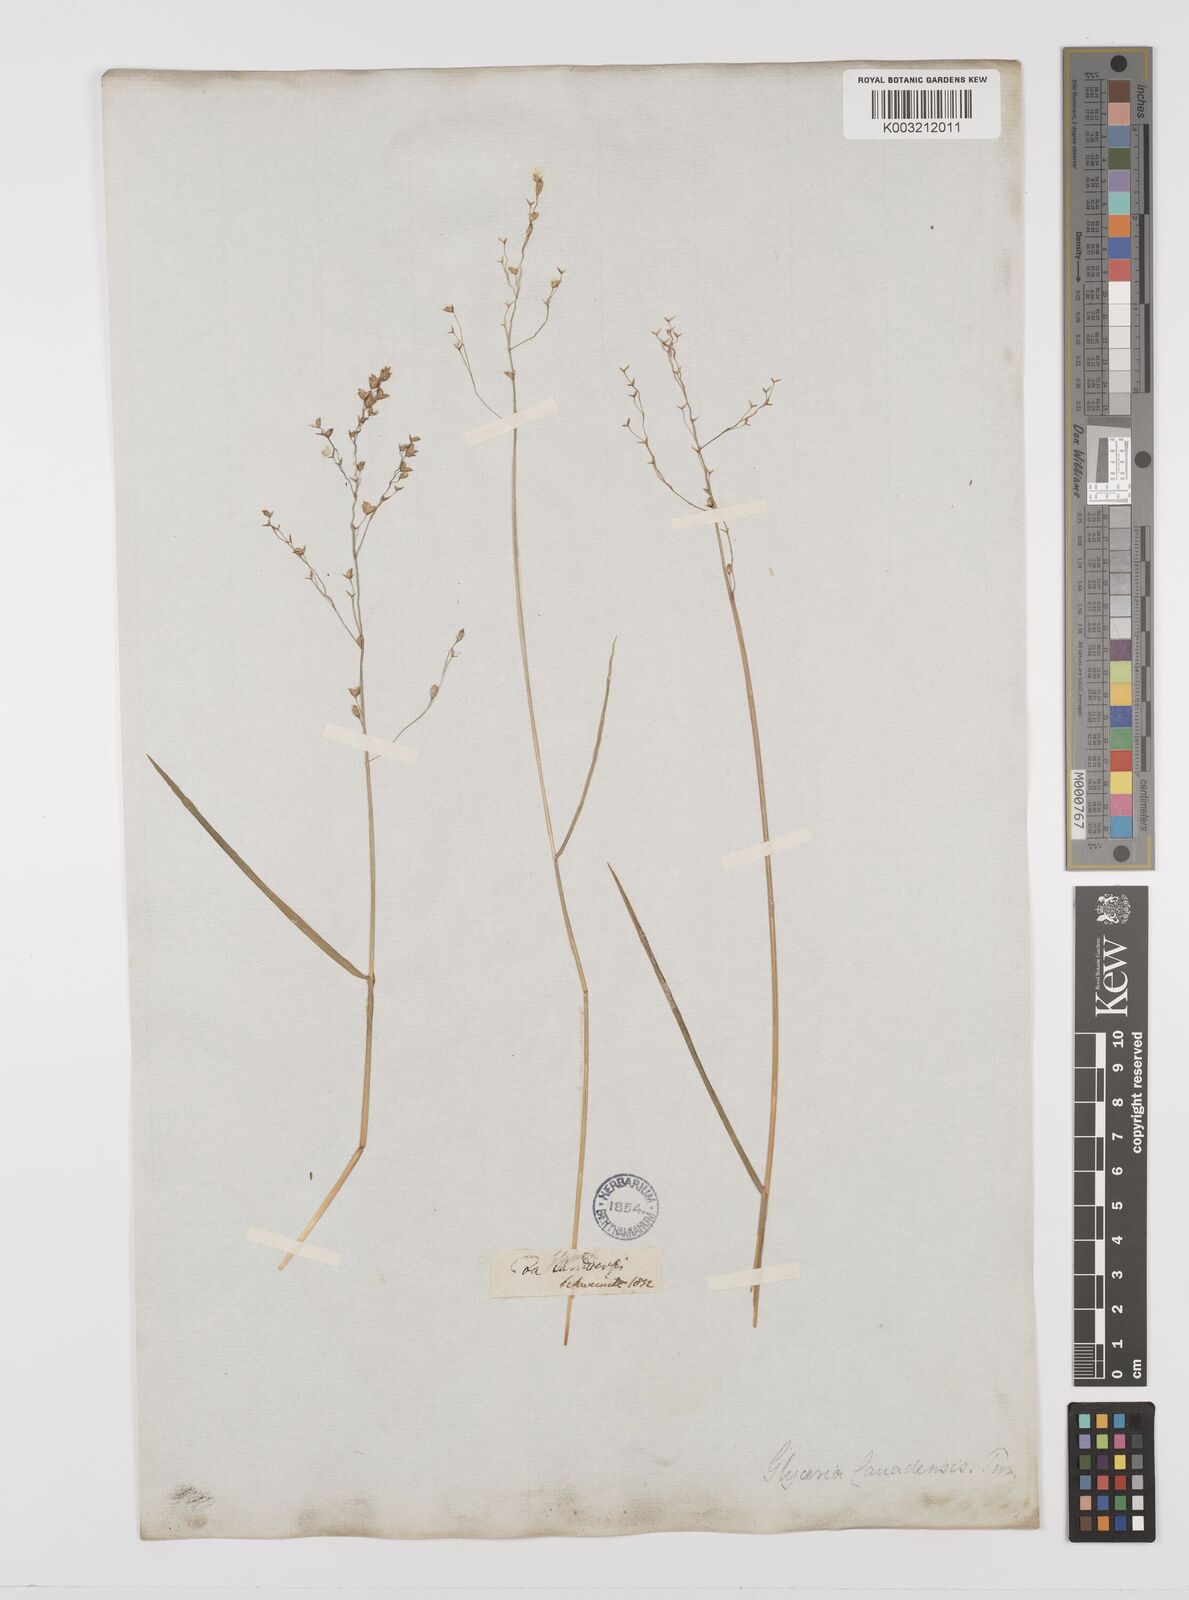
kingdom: Plantae
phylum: Tracheophyta
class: Liliopsida
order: Poales
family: Poaceae
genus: Glyceria
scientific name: Glyceria canadensis
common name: Canada mannagrass
